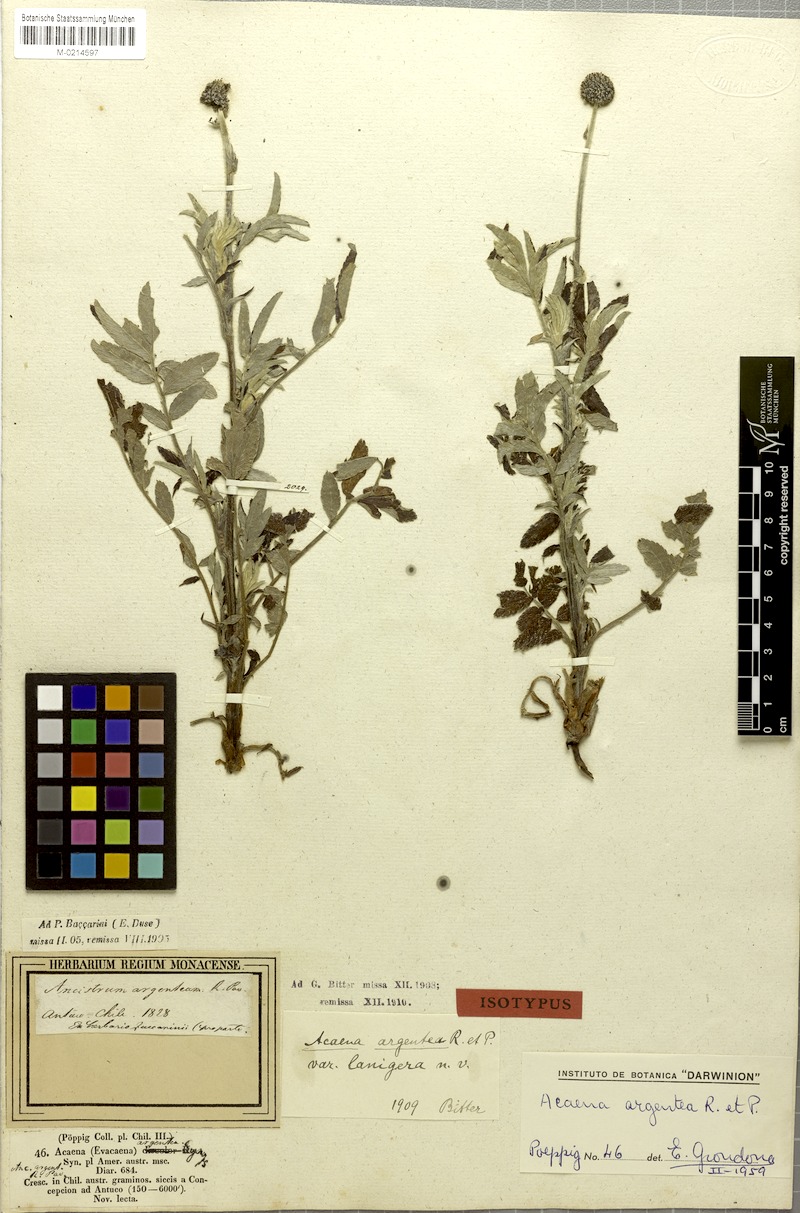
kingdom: Plantae
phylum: Tracheophyta
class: Magnoliopsida
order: Rosales
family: Rosaceae
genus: Acaena
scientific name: Acaena argentea
